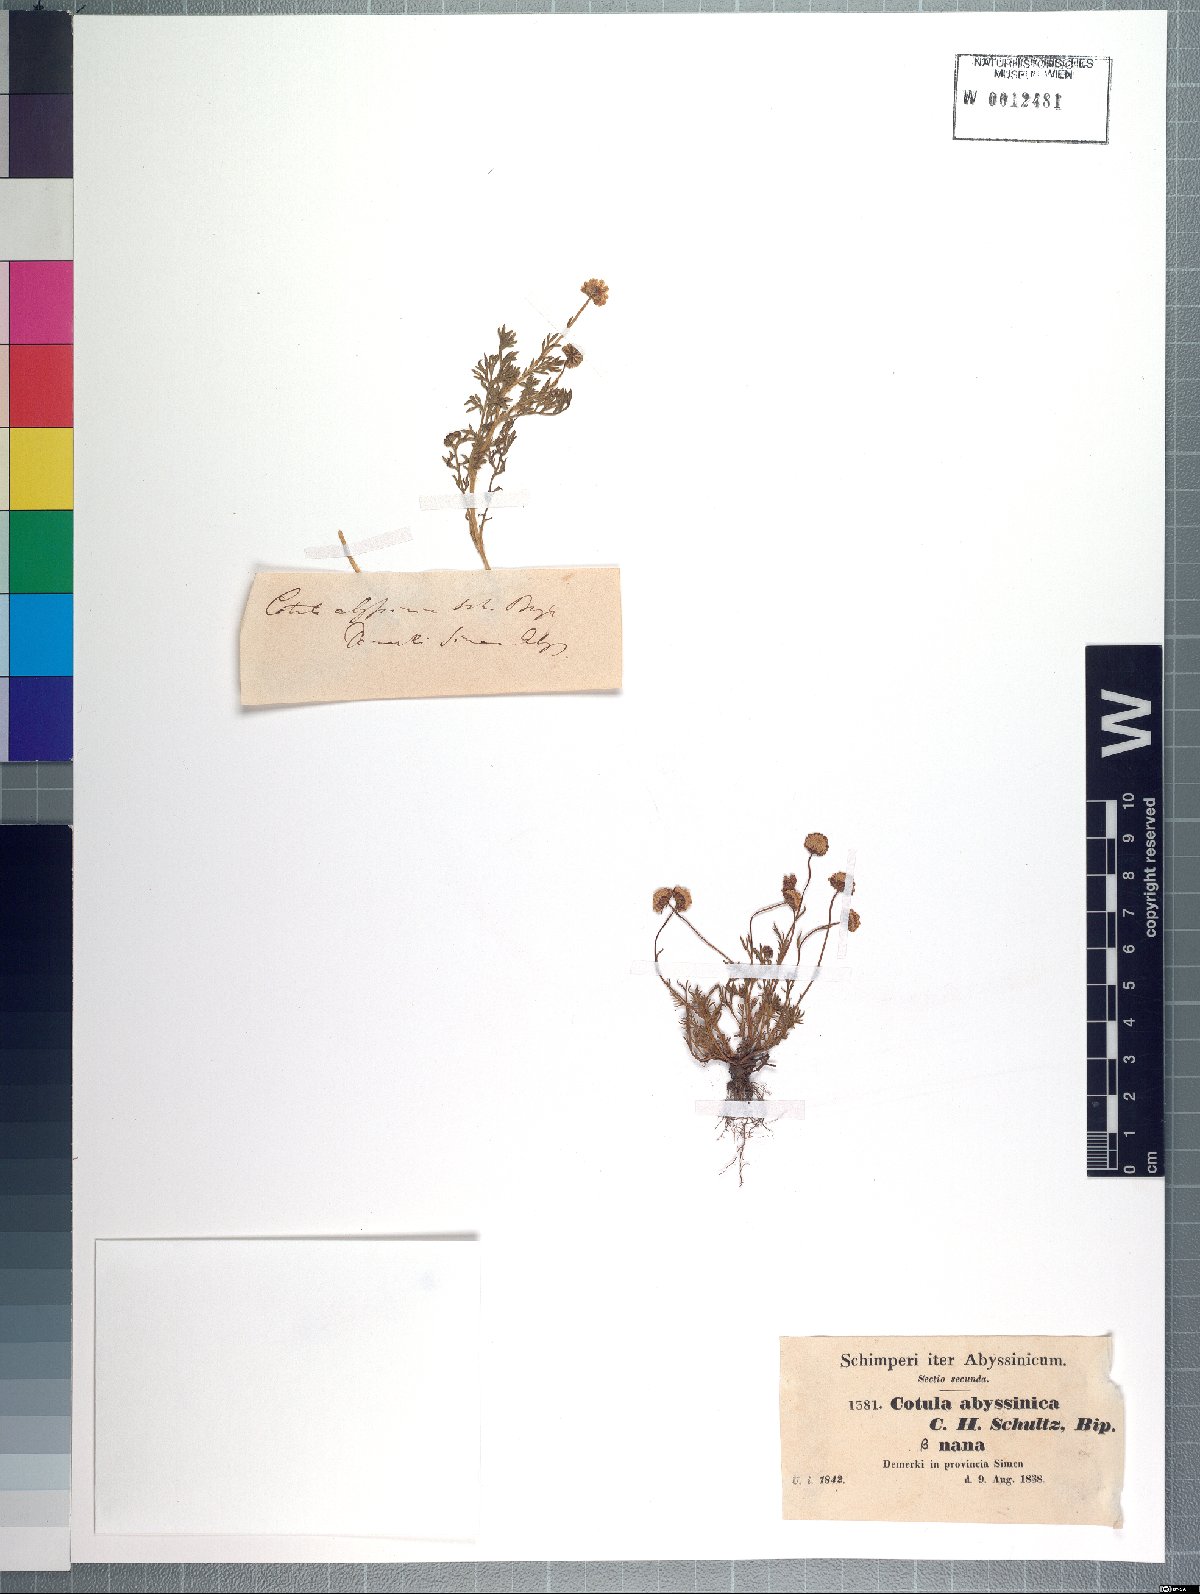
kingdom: Plantae
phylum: Tracheophyta
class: Magnoliopsida
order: Asterales
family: Asteraceae
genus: Cotula
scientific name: Cotula abyssinica
